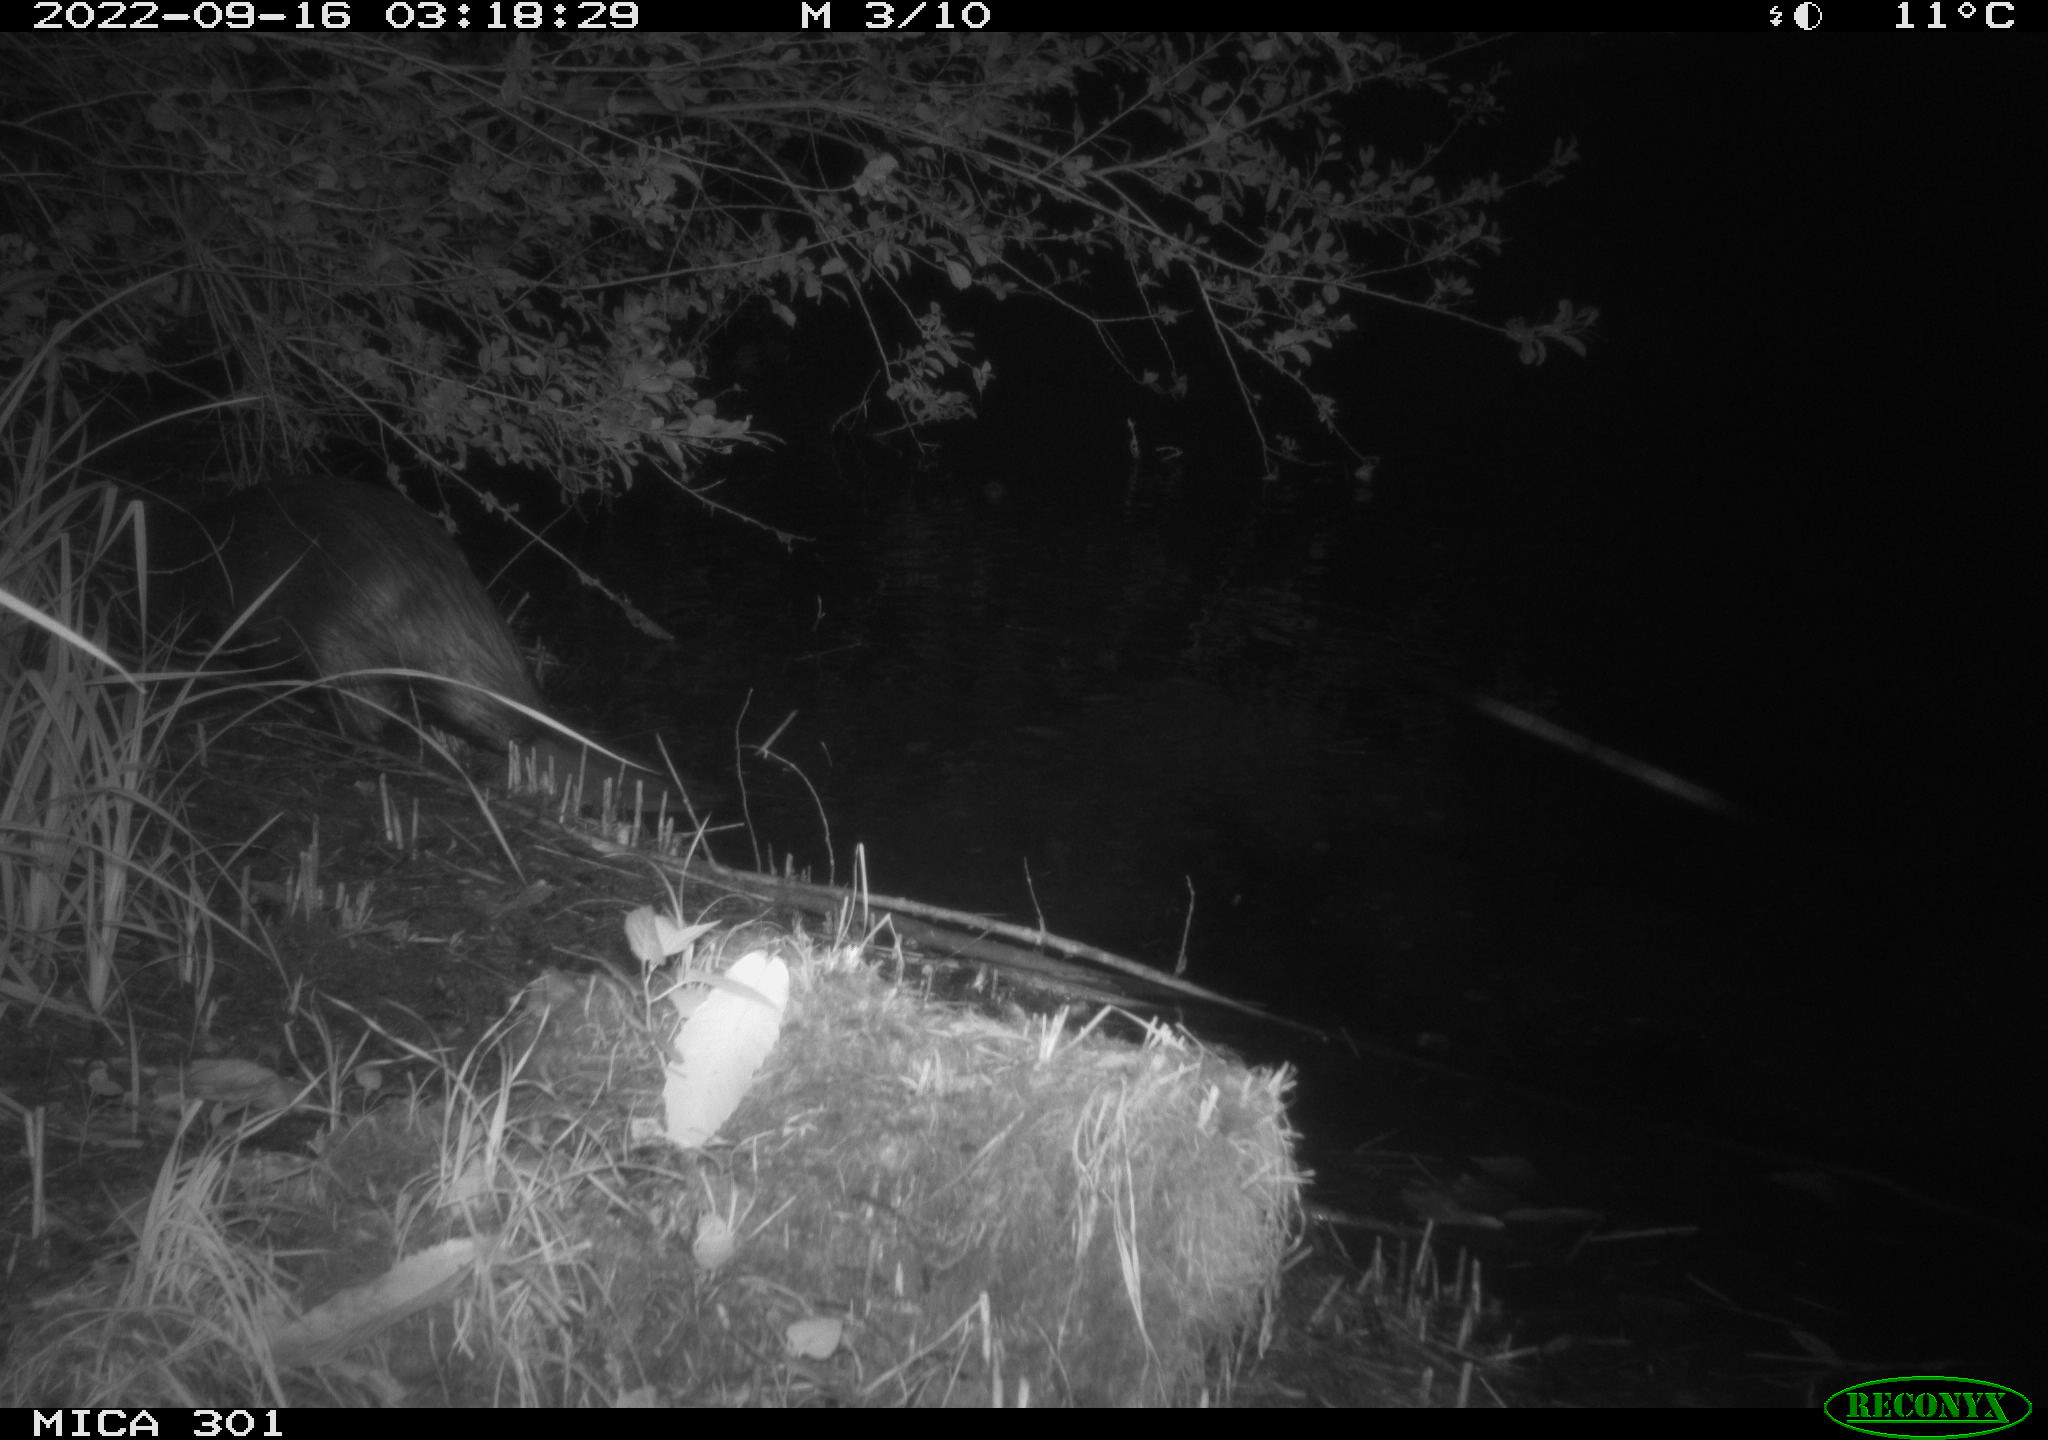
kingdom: Animalia
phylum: Chordata
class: Mammalia
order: Rodentia
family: Castoridae
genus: Castor
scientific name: Castor fiber
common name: Eurasian beaver
